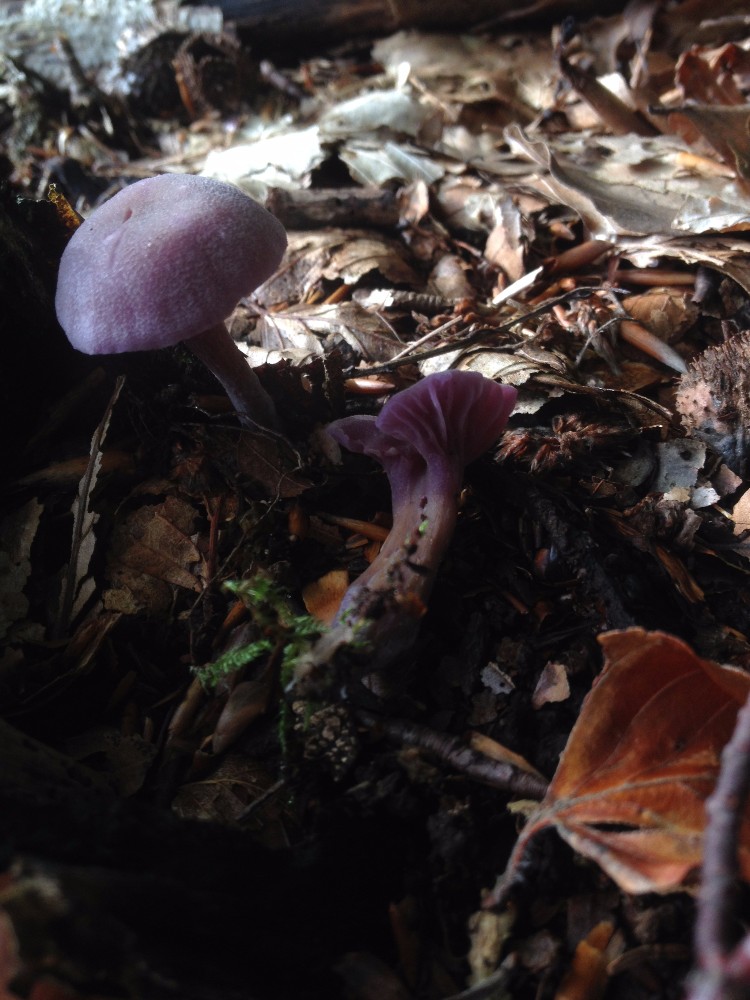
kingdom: Fungi
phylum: Basidiomycota
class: Agaricomycetes
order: Agaricales
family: Hydnangiaceae
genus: Laccaria
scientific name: Laccaria amethystina
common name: violet ametysthat
